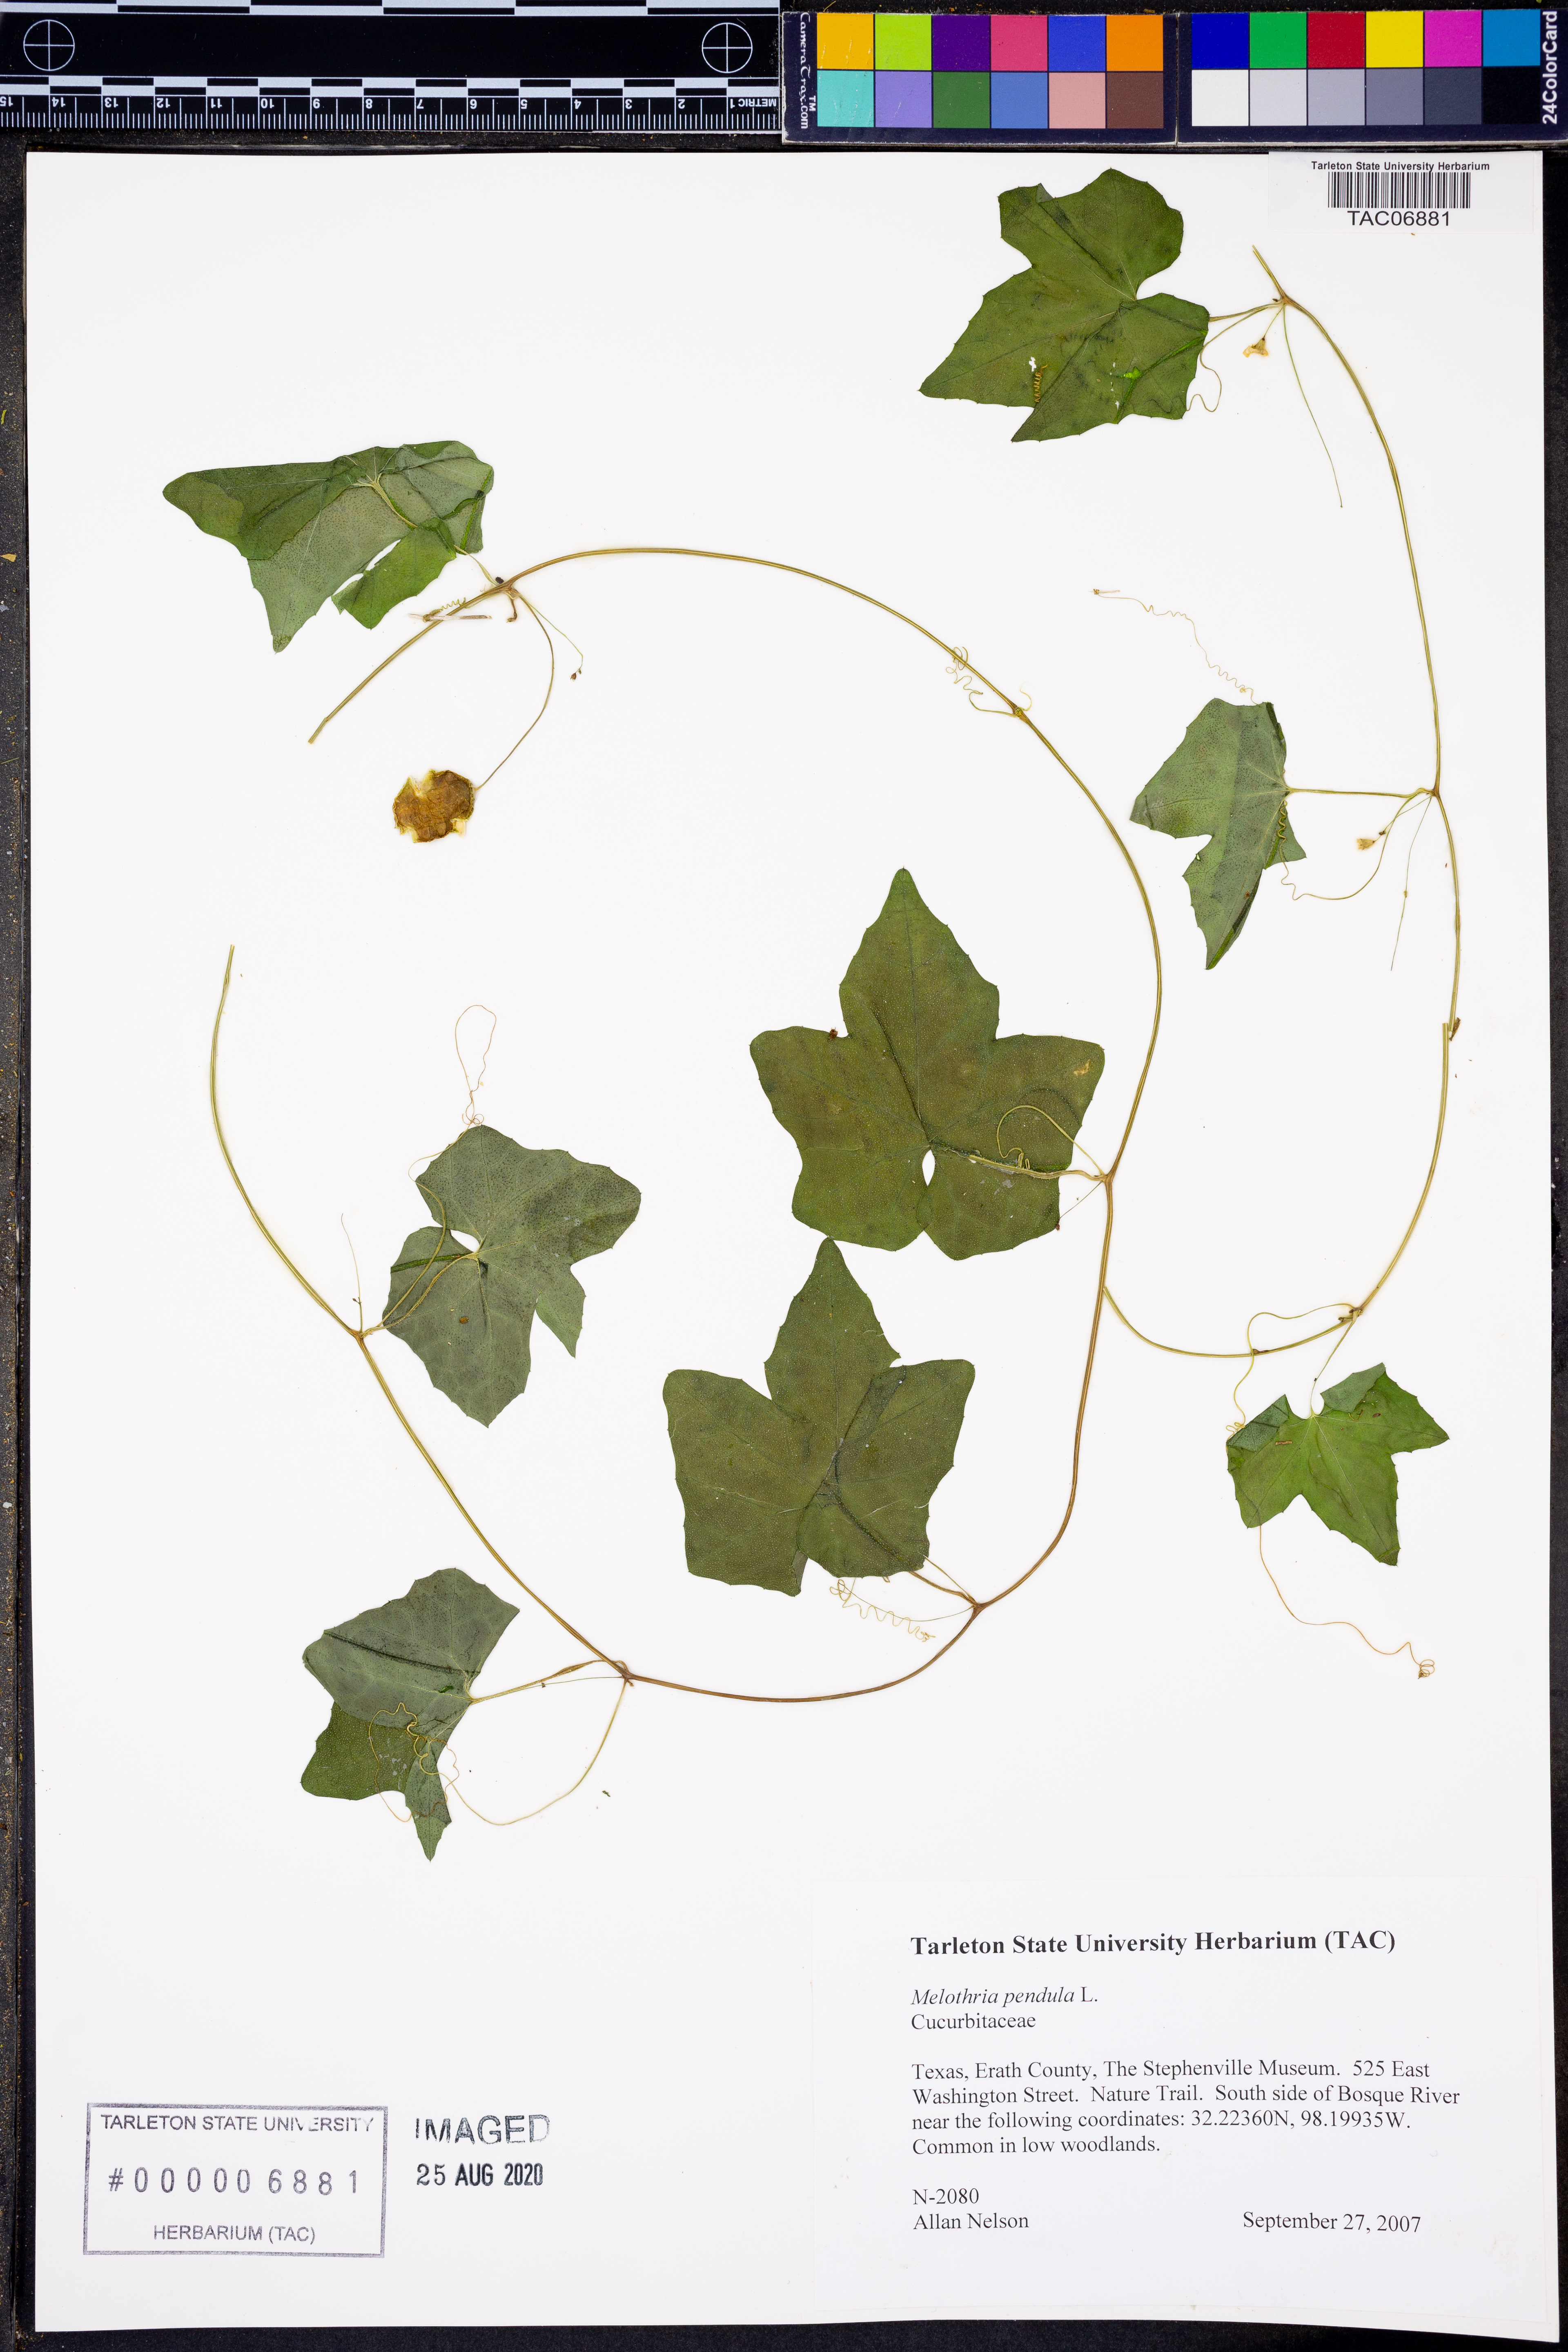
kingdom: Plantae
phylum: Tracheophyta
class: Magnoliopsida
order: Cucurbitales
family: Cucurbitaceae
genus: Melothria
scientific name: Melothria pendula
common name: Creeping-cucumber
